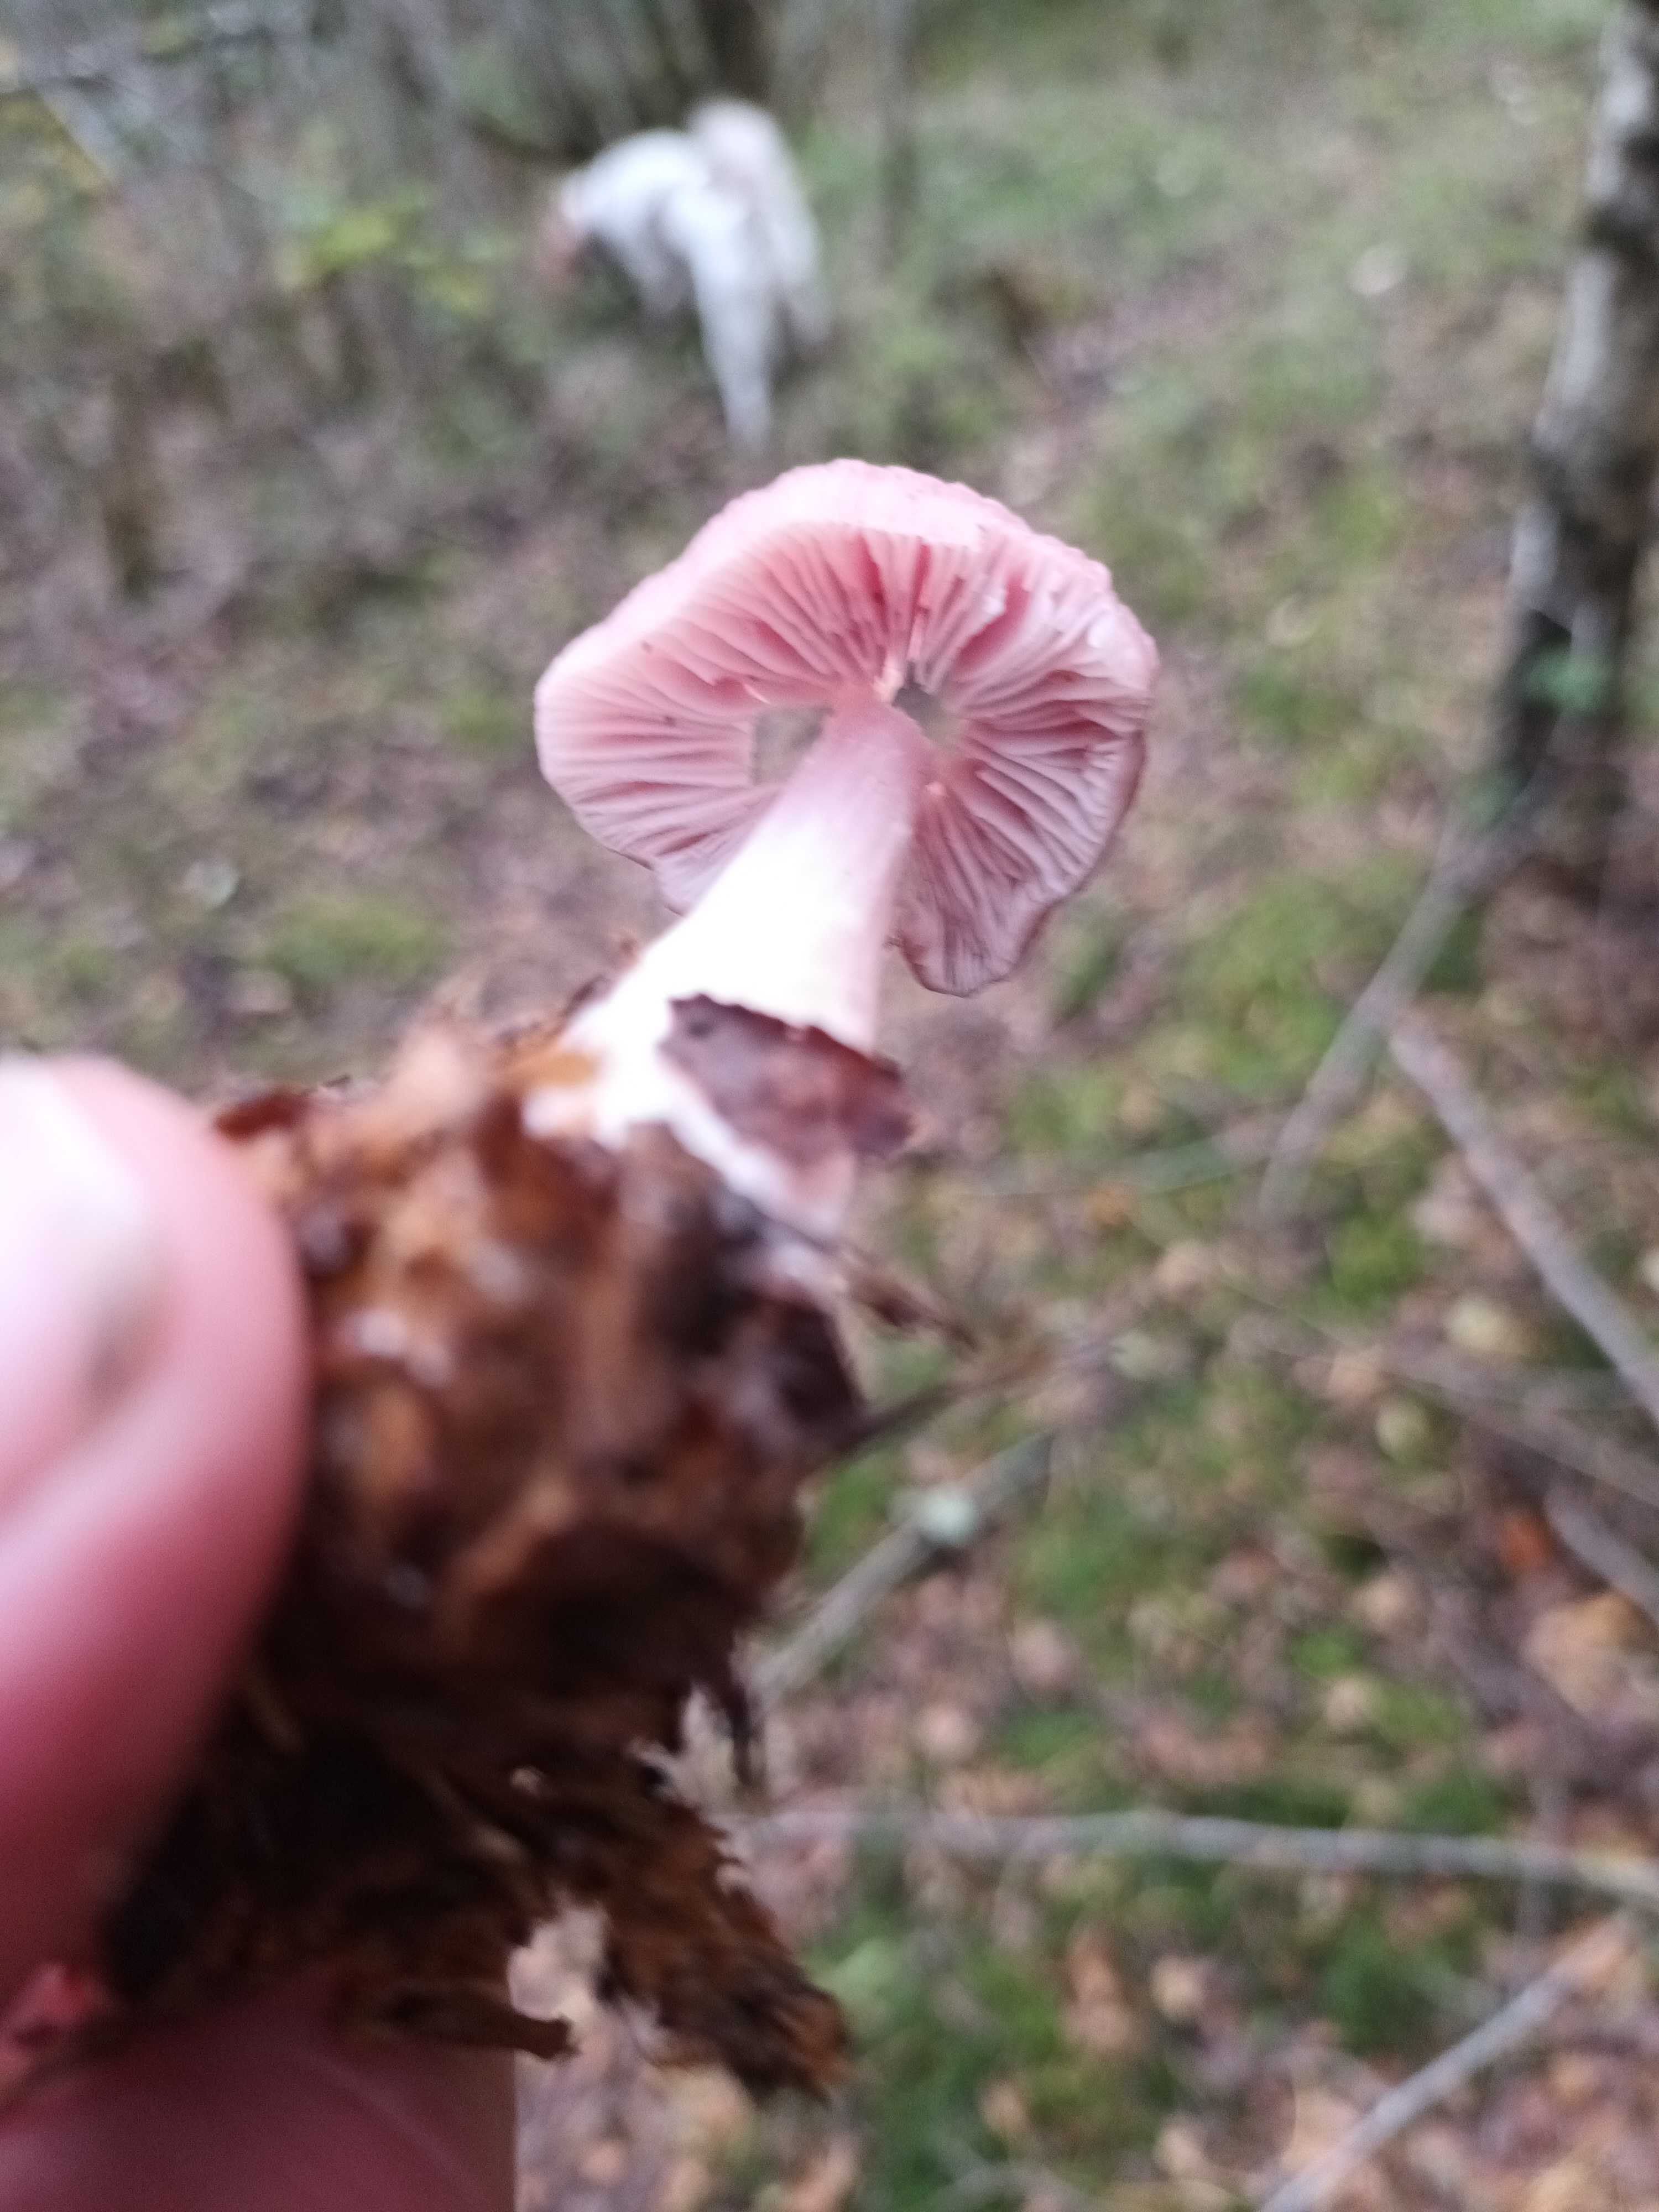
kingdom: Fungi
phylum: Basidiomycota
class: Agaricomycetes
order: Agaricales
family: Mycenaceae
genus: Mycena
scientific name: Mycena rosea
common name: rosa huesvamp
